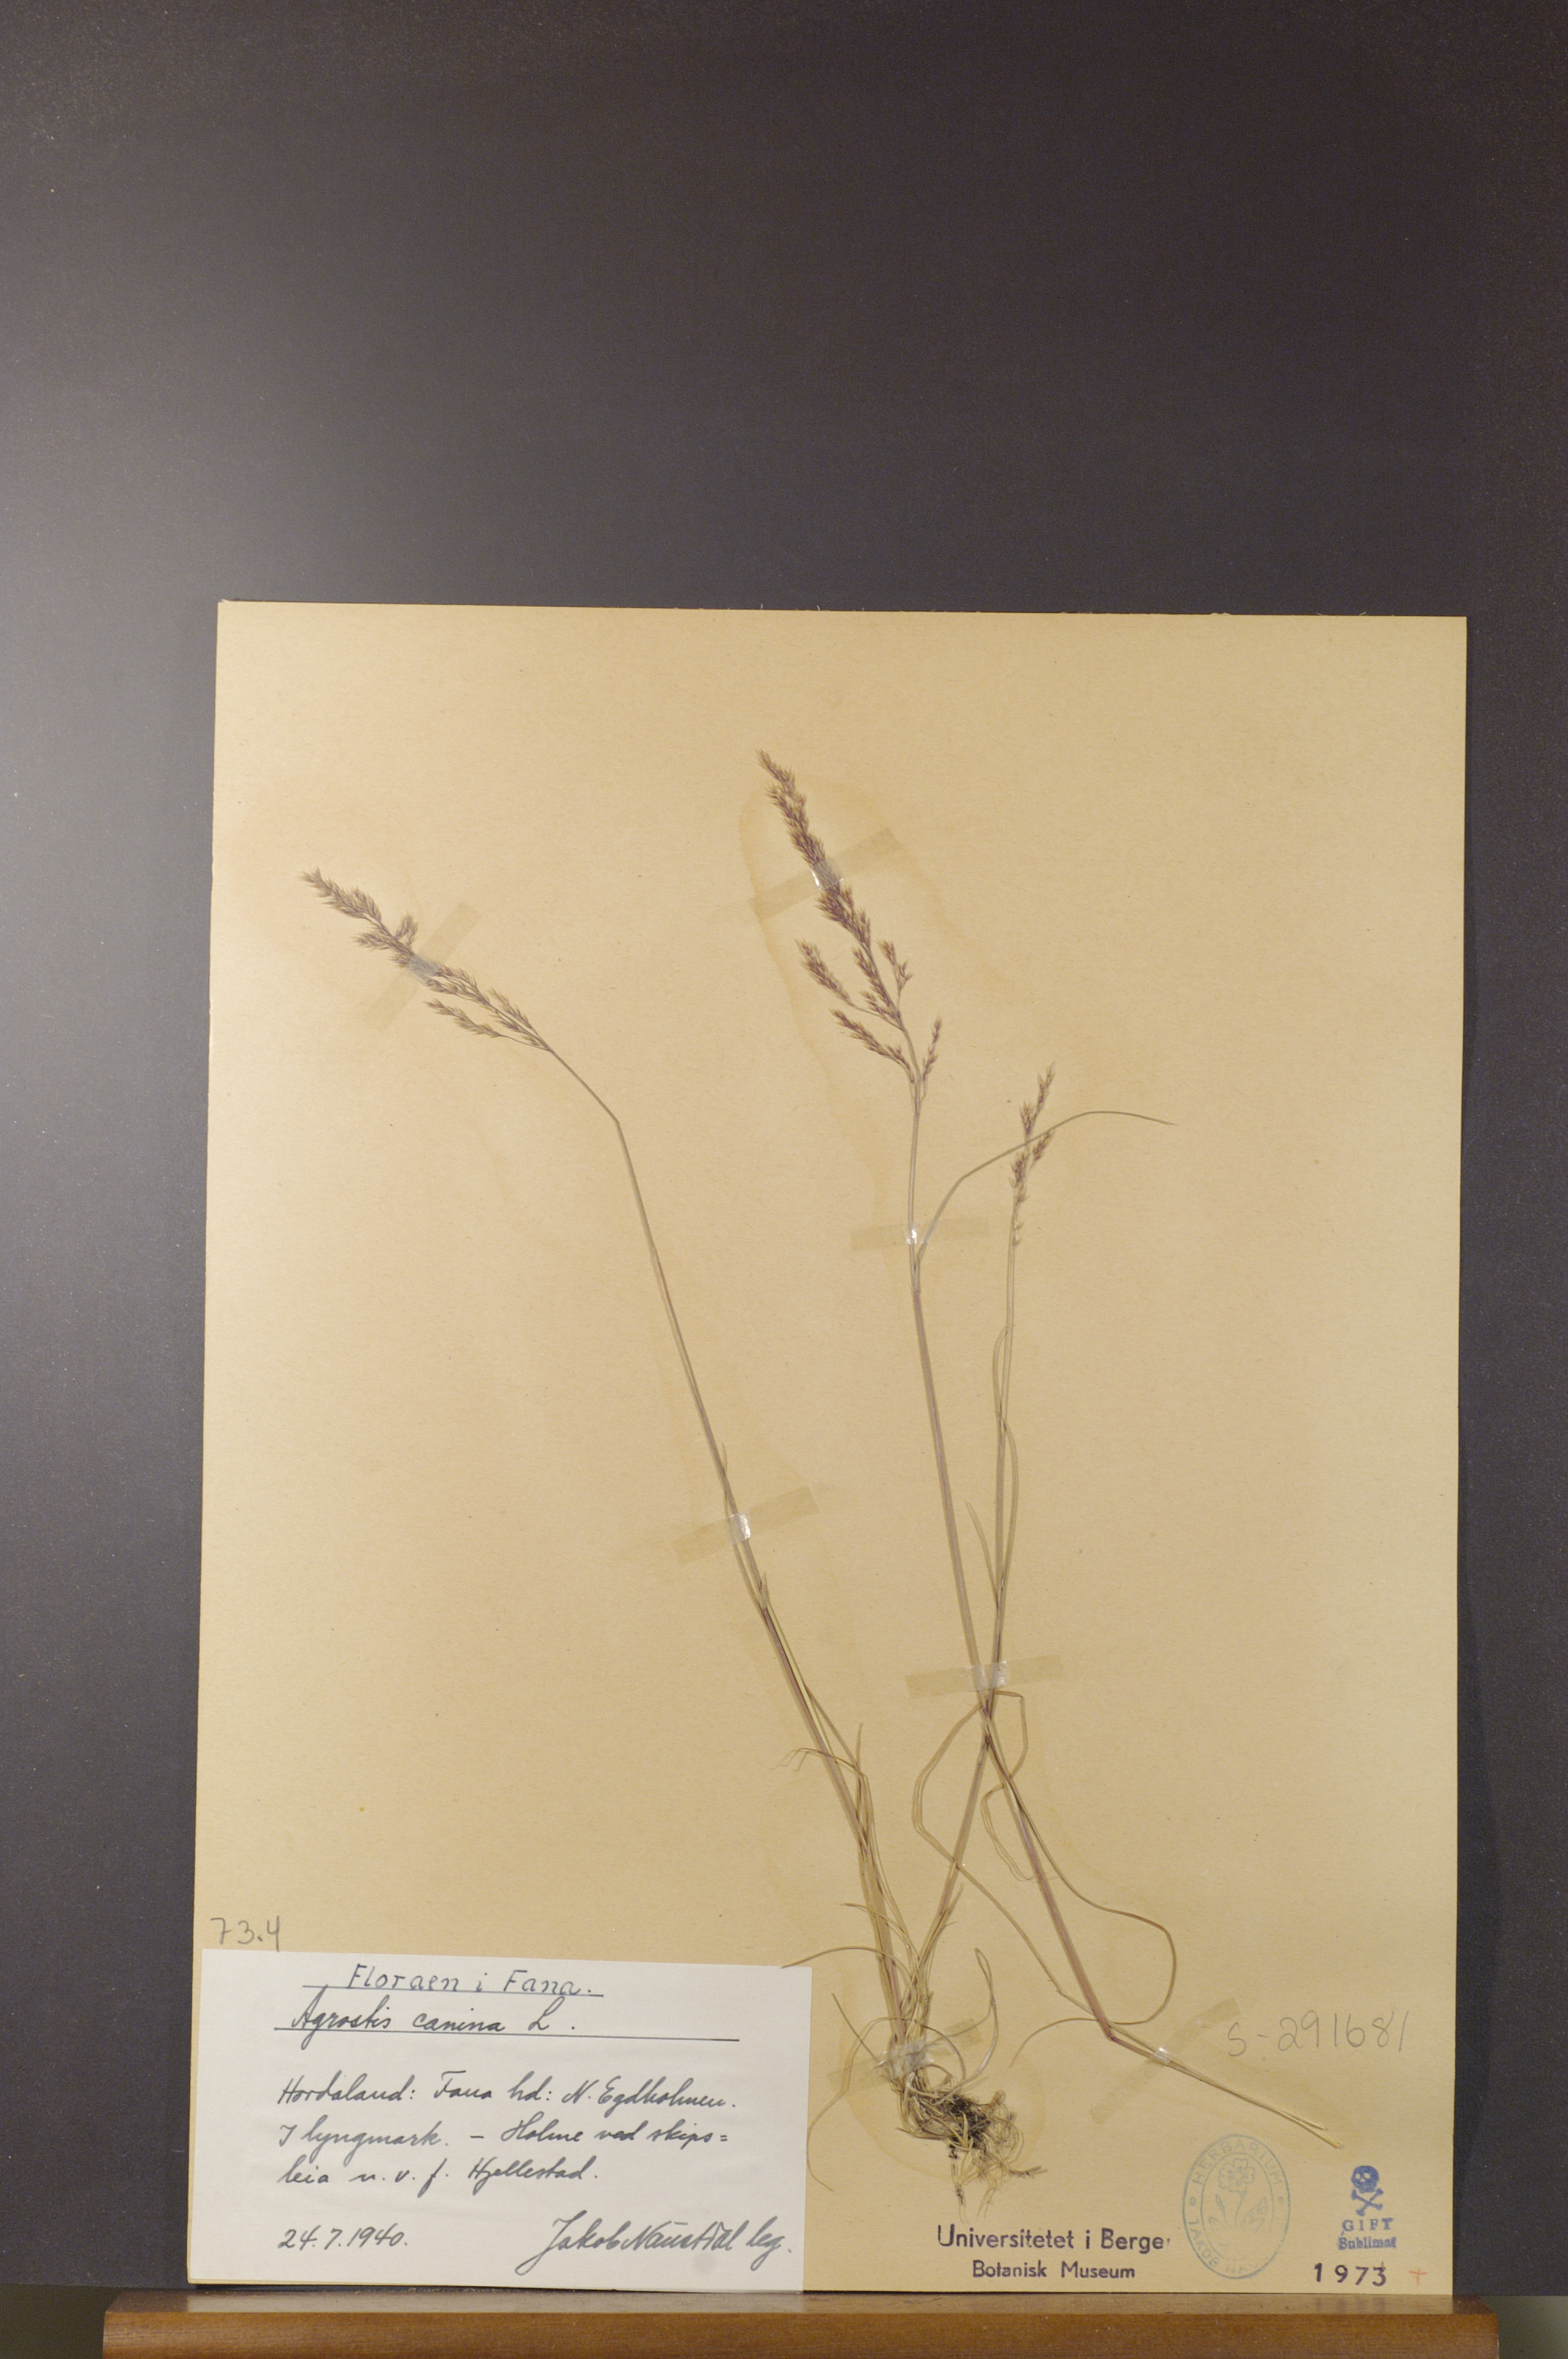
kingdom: Plantae
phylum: Tracheophyta
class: Liliopsida
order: Poales
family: Poaceae
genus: Agrostis
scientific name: Agrostis canina
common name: Velvet bent
